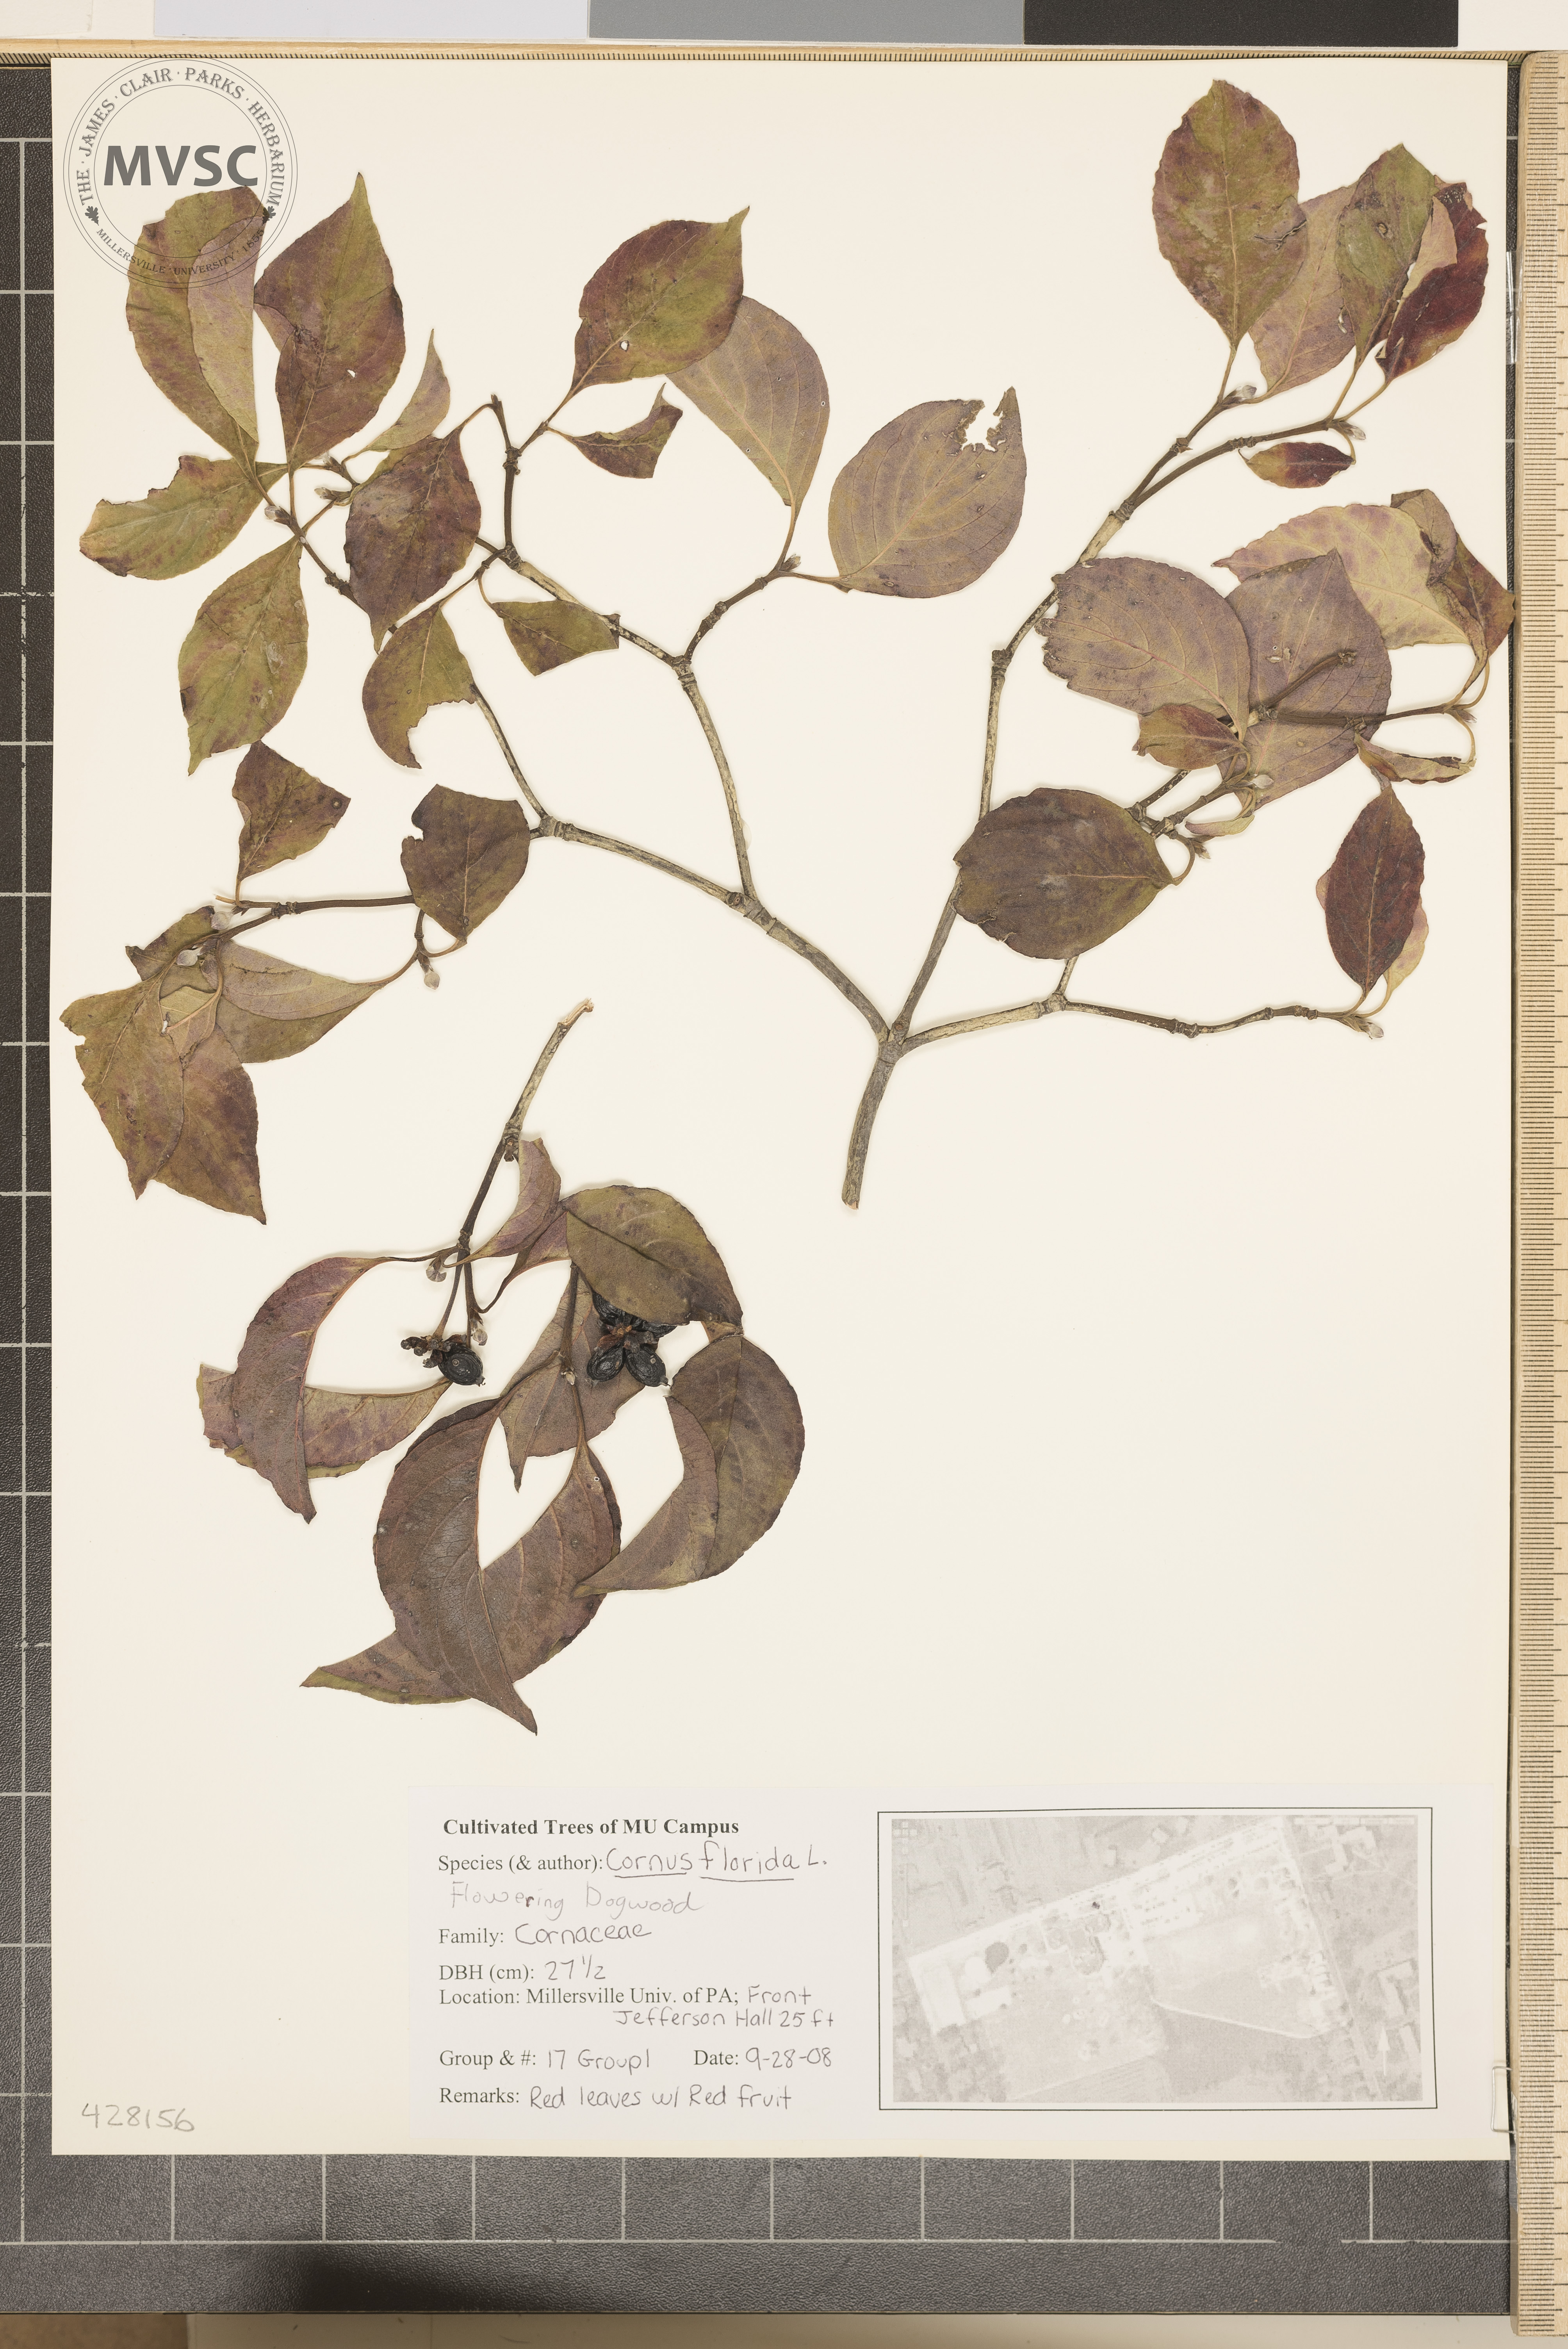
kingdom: Plantae
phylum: Tracheophyta
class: Magnoliopsida
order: Cornales
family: Cornaceae
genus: Cornus
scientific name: Cornus florida
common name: Flowering Dogwood
